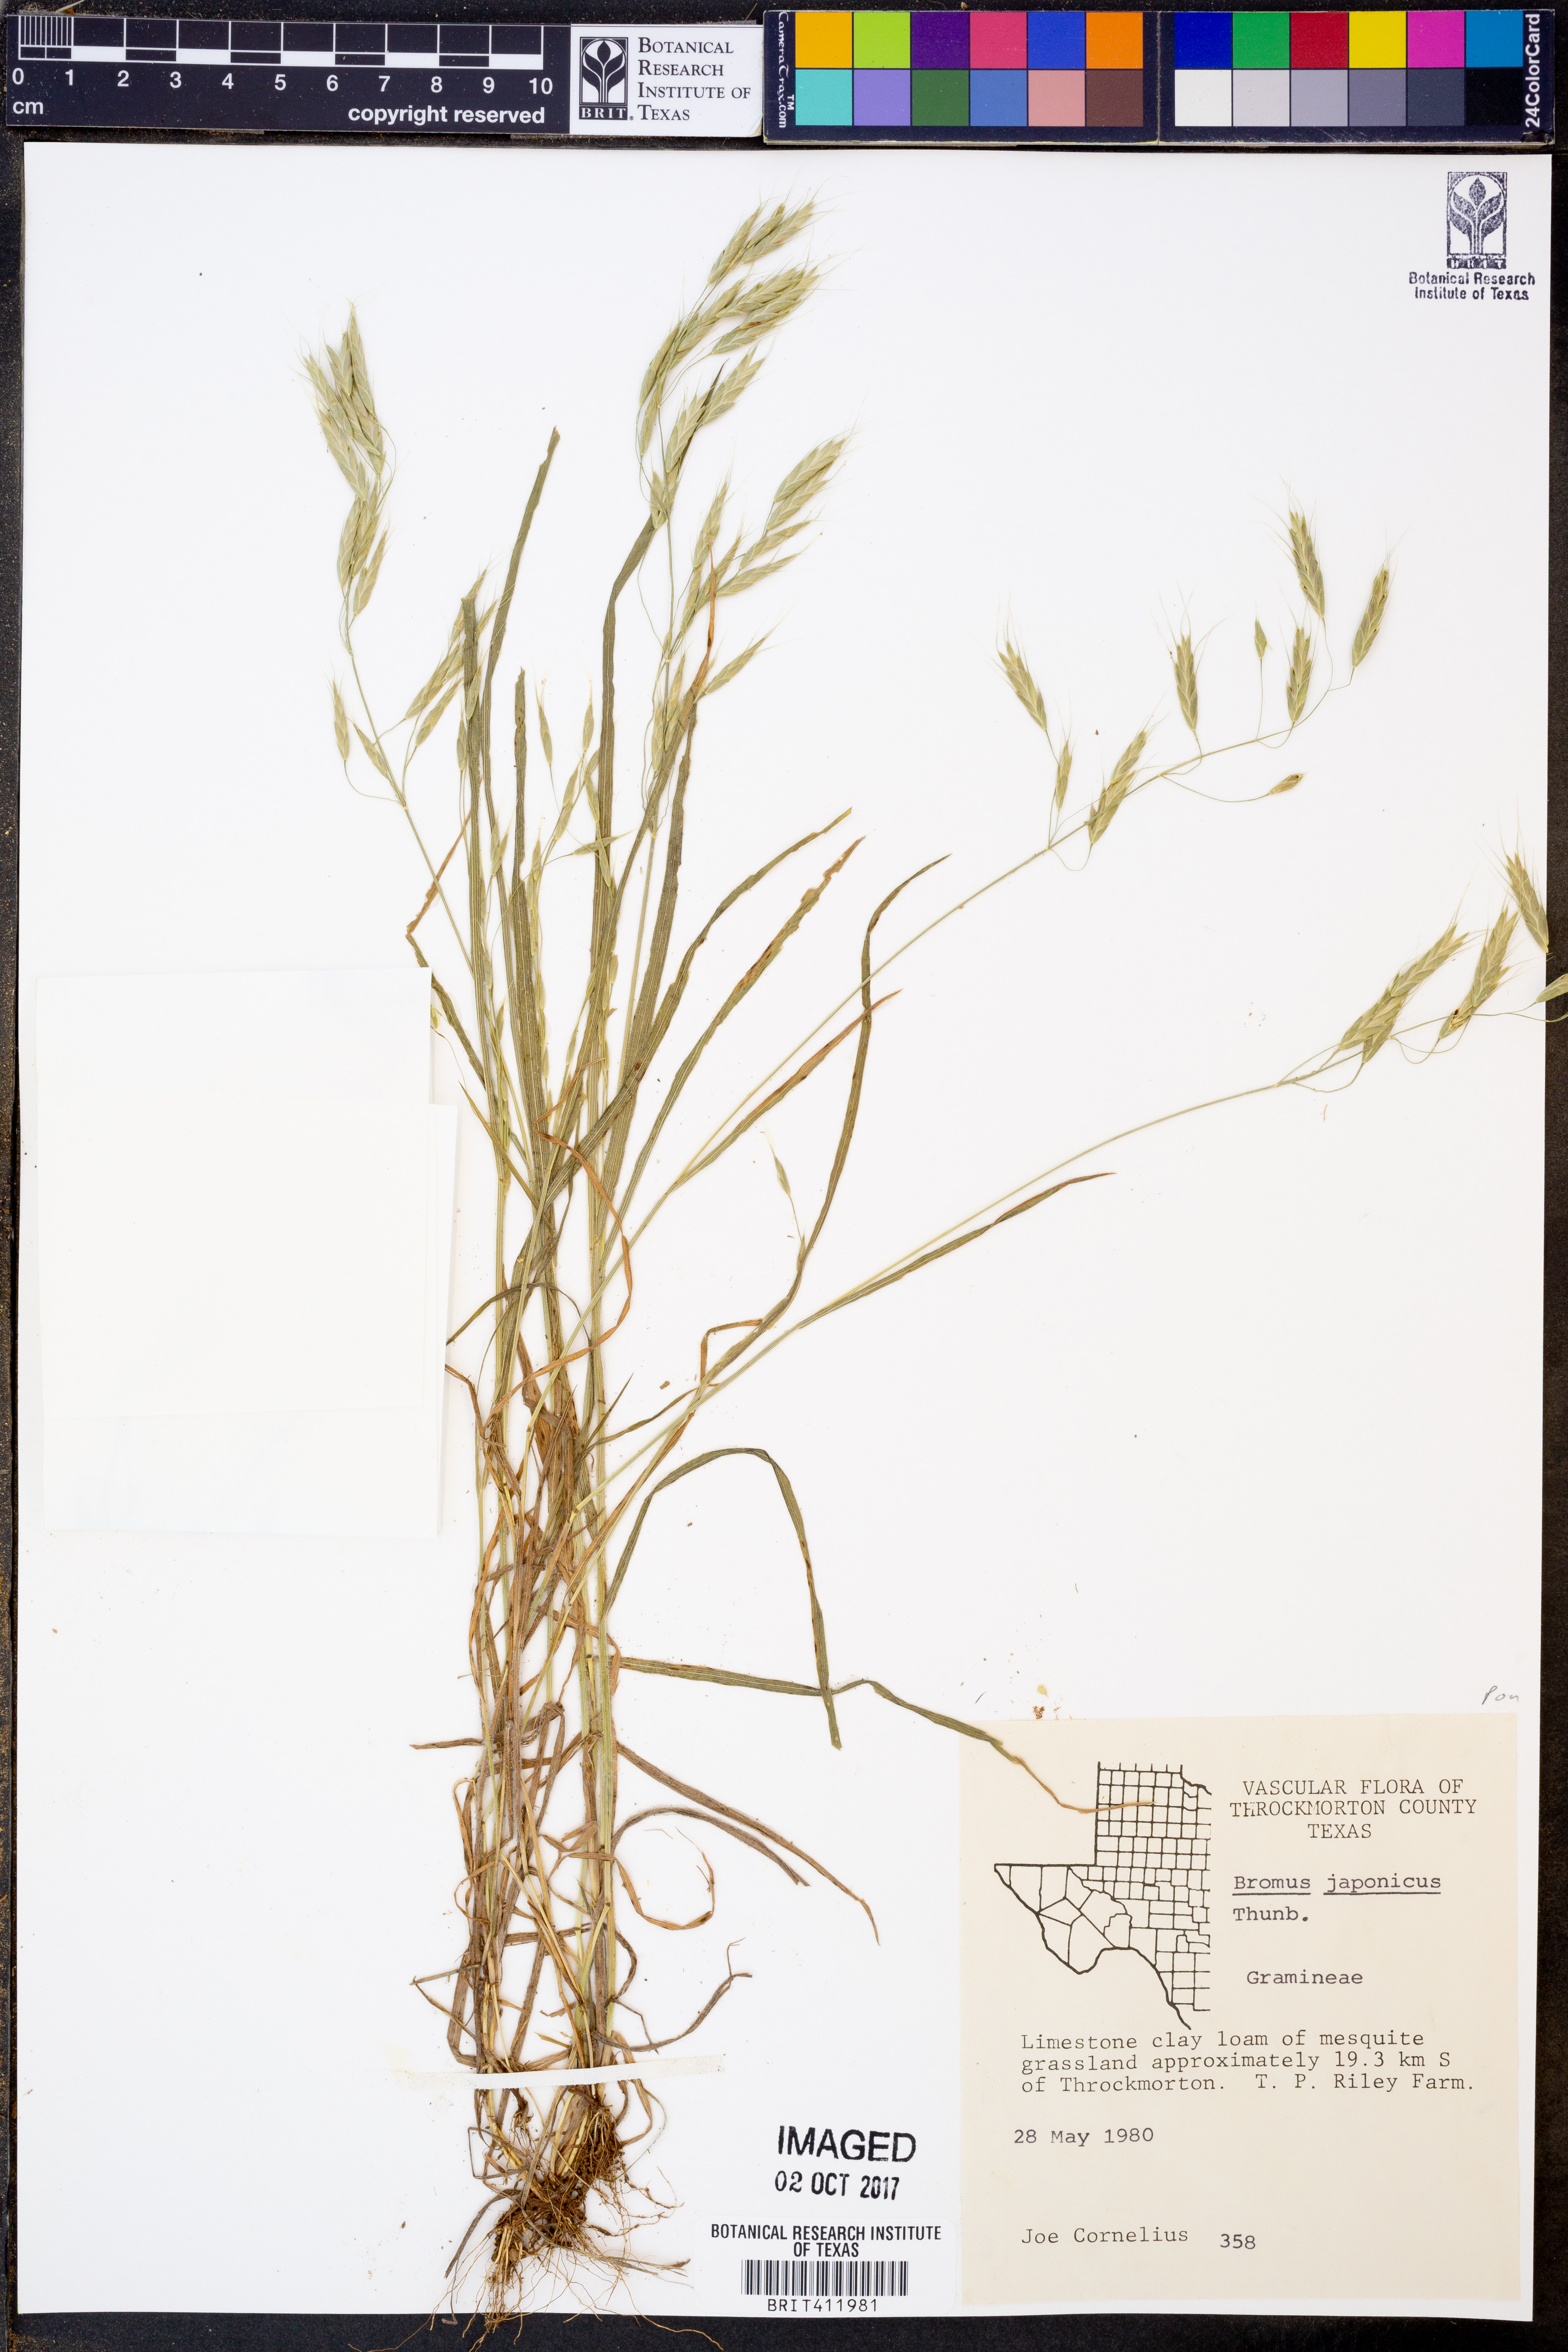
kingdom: Plantae
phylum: Tracheophyta
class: Liliopsida
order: Poales
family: Poaceae
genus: Bromus
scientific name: Bromus japonicus
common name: Japanese brome
